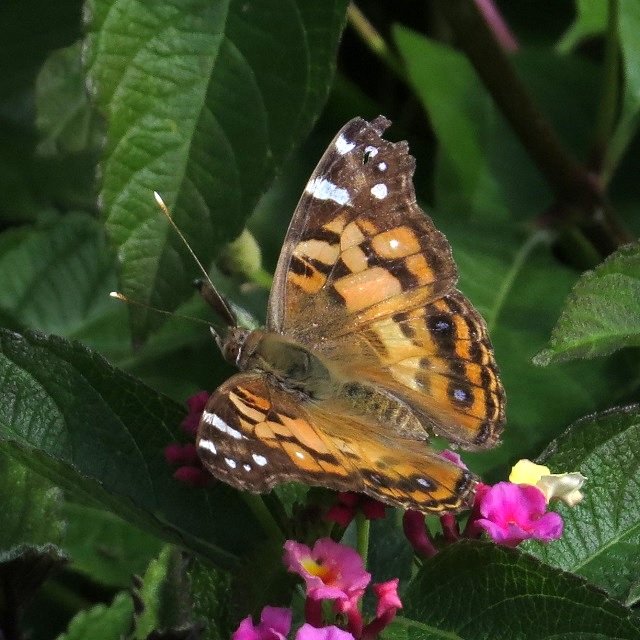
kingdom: Animalia
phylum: Arthropoda
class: Insecta
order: Lepidoptera
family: Nymphalidae
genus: Vanessa
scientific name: Vanessa virginiensis
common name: American Lady
